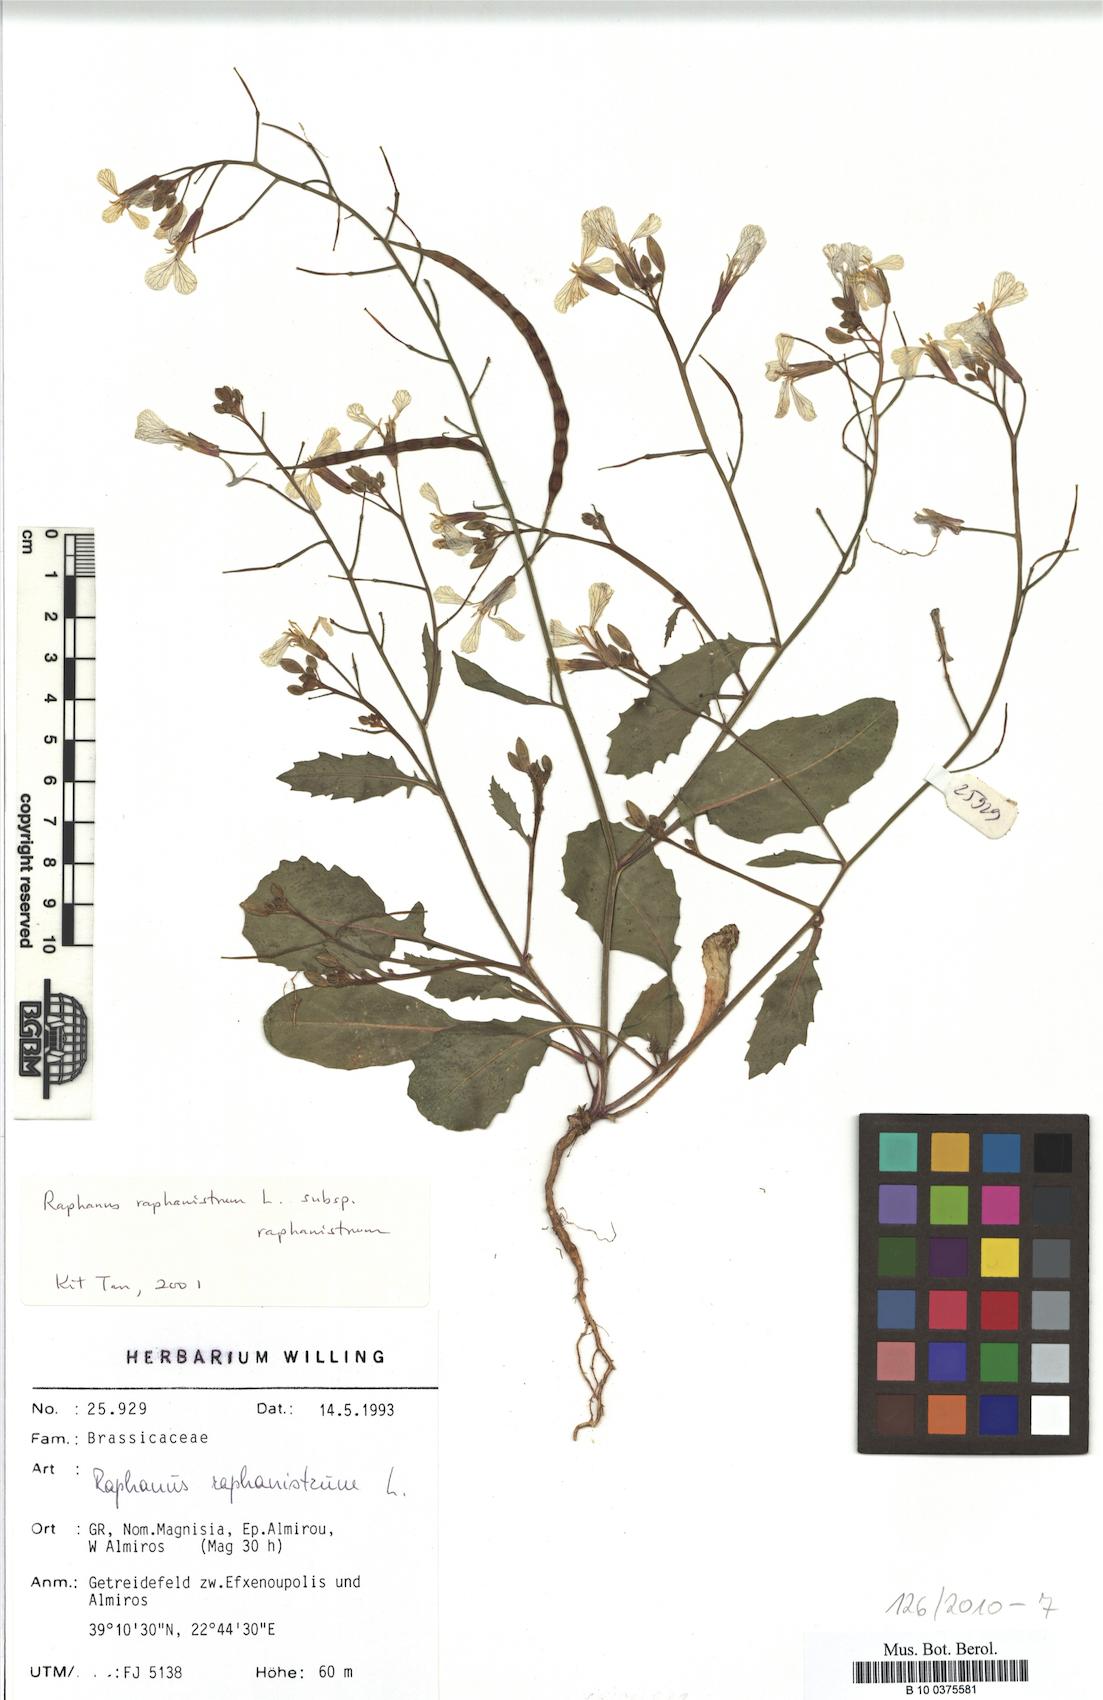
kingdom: Plantae
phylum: Tracheophyta
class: Magnoliopsida
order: Brassicales
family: Brassicaceae
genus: Raphanus
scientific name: Raphanus raphanistrum
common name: Wild radish
